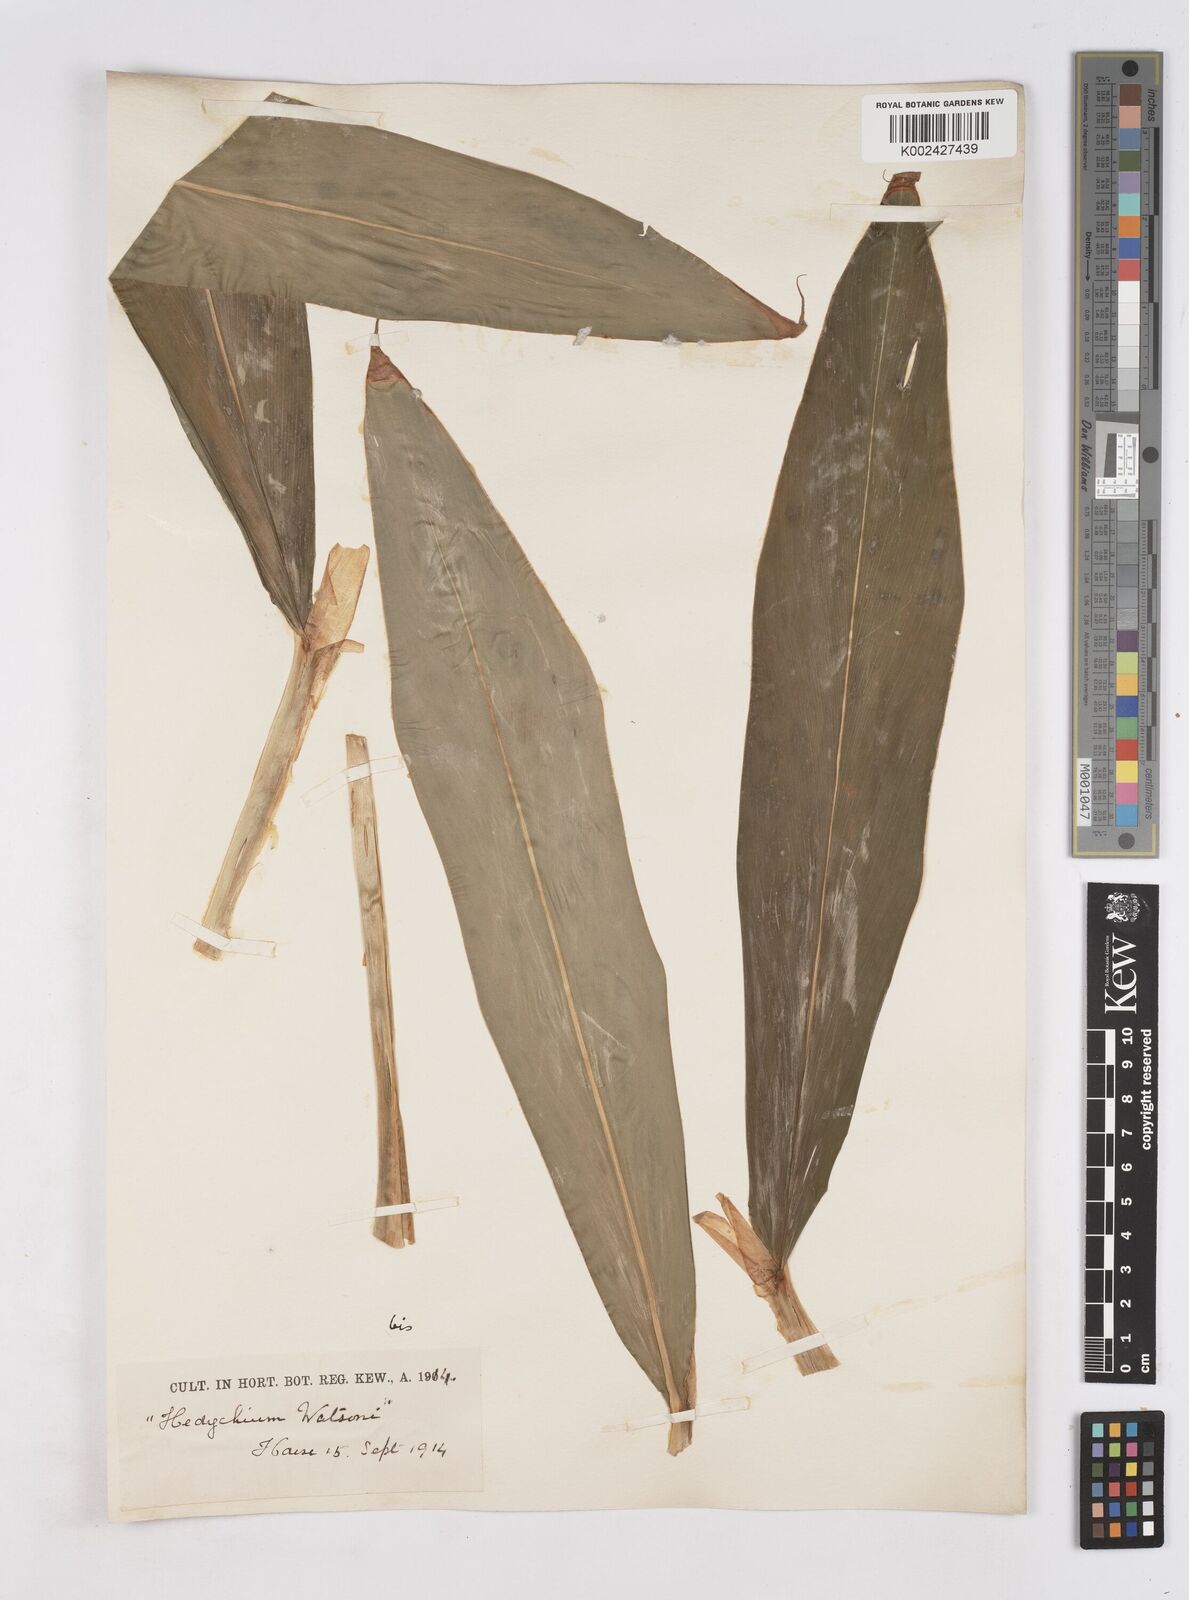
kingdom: Plantae
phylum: Tracheophyta
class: Liliopsida
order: Zingiberales
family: Zingiberaceae
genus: Hedychium
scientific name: Hedychium coronarium
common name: White garland-lily
